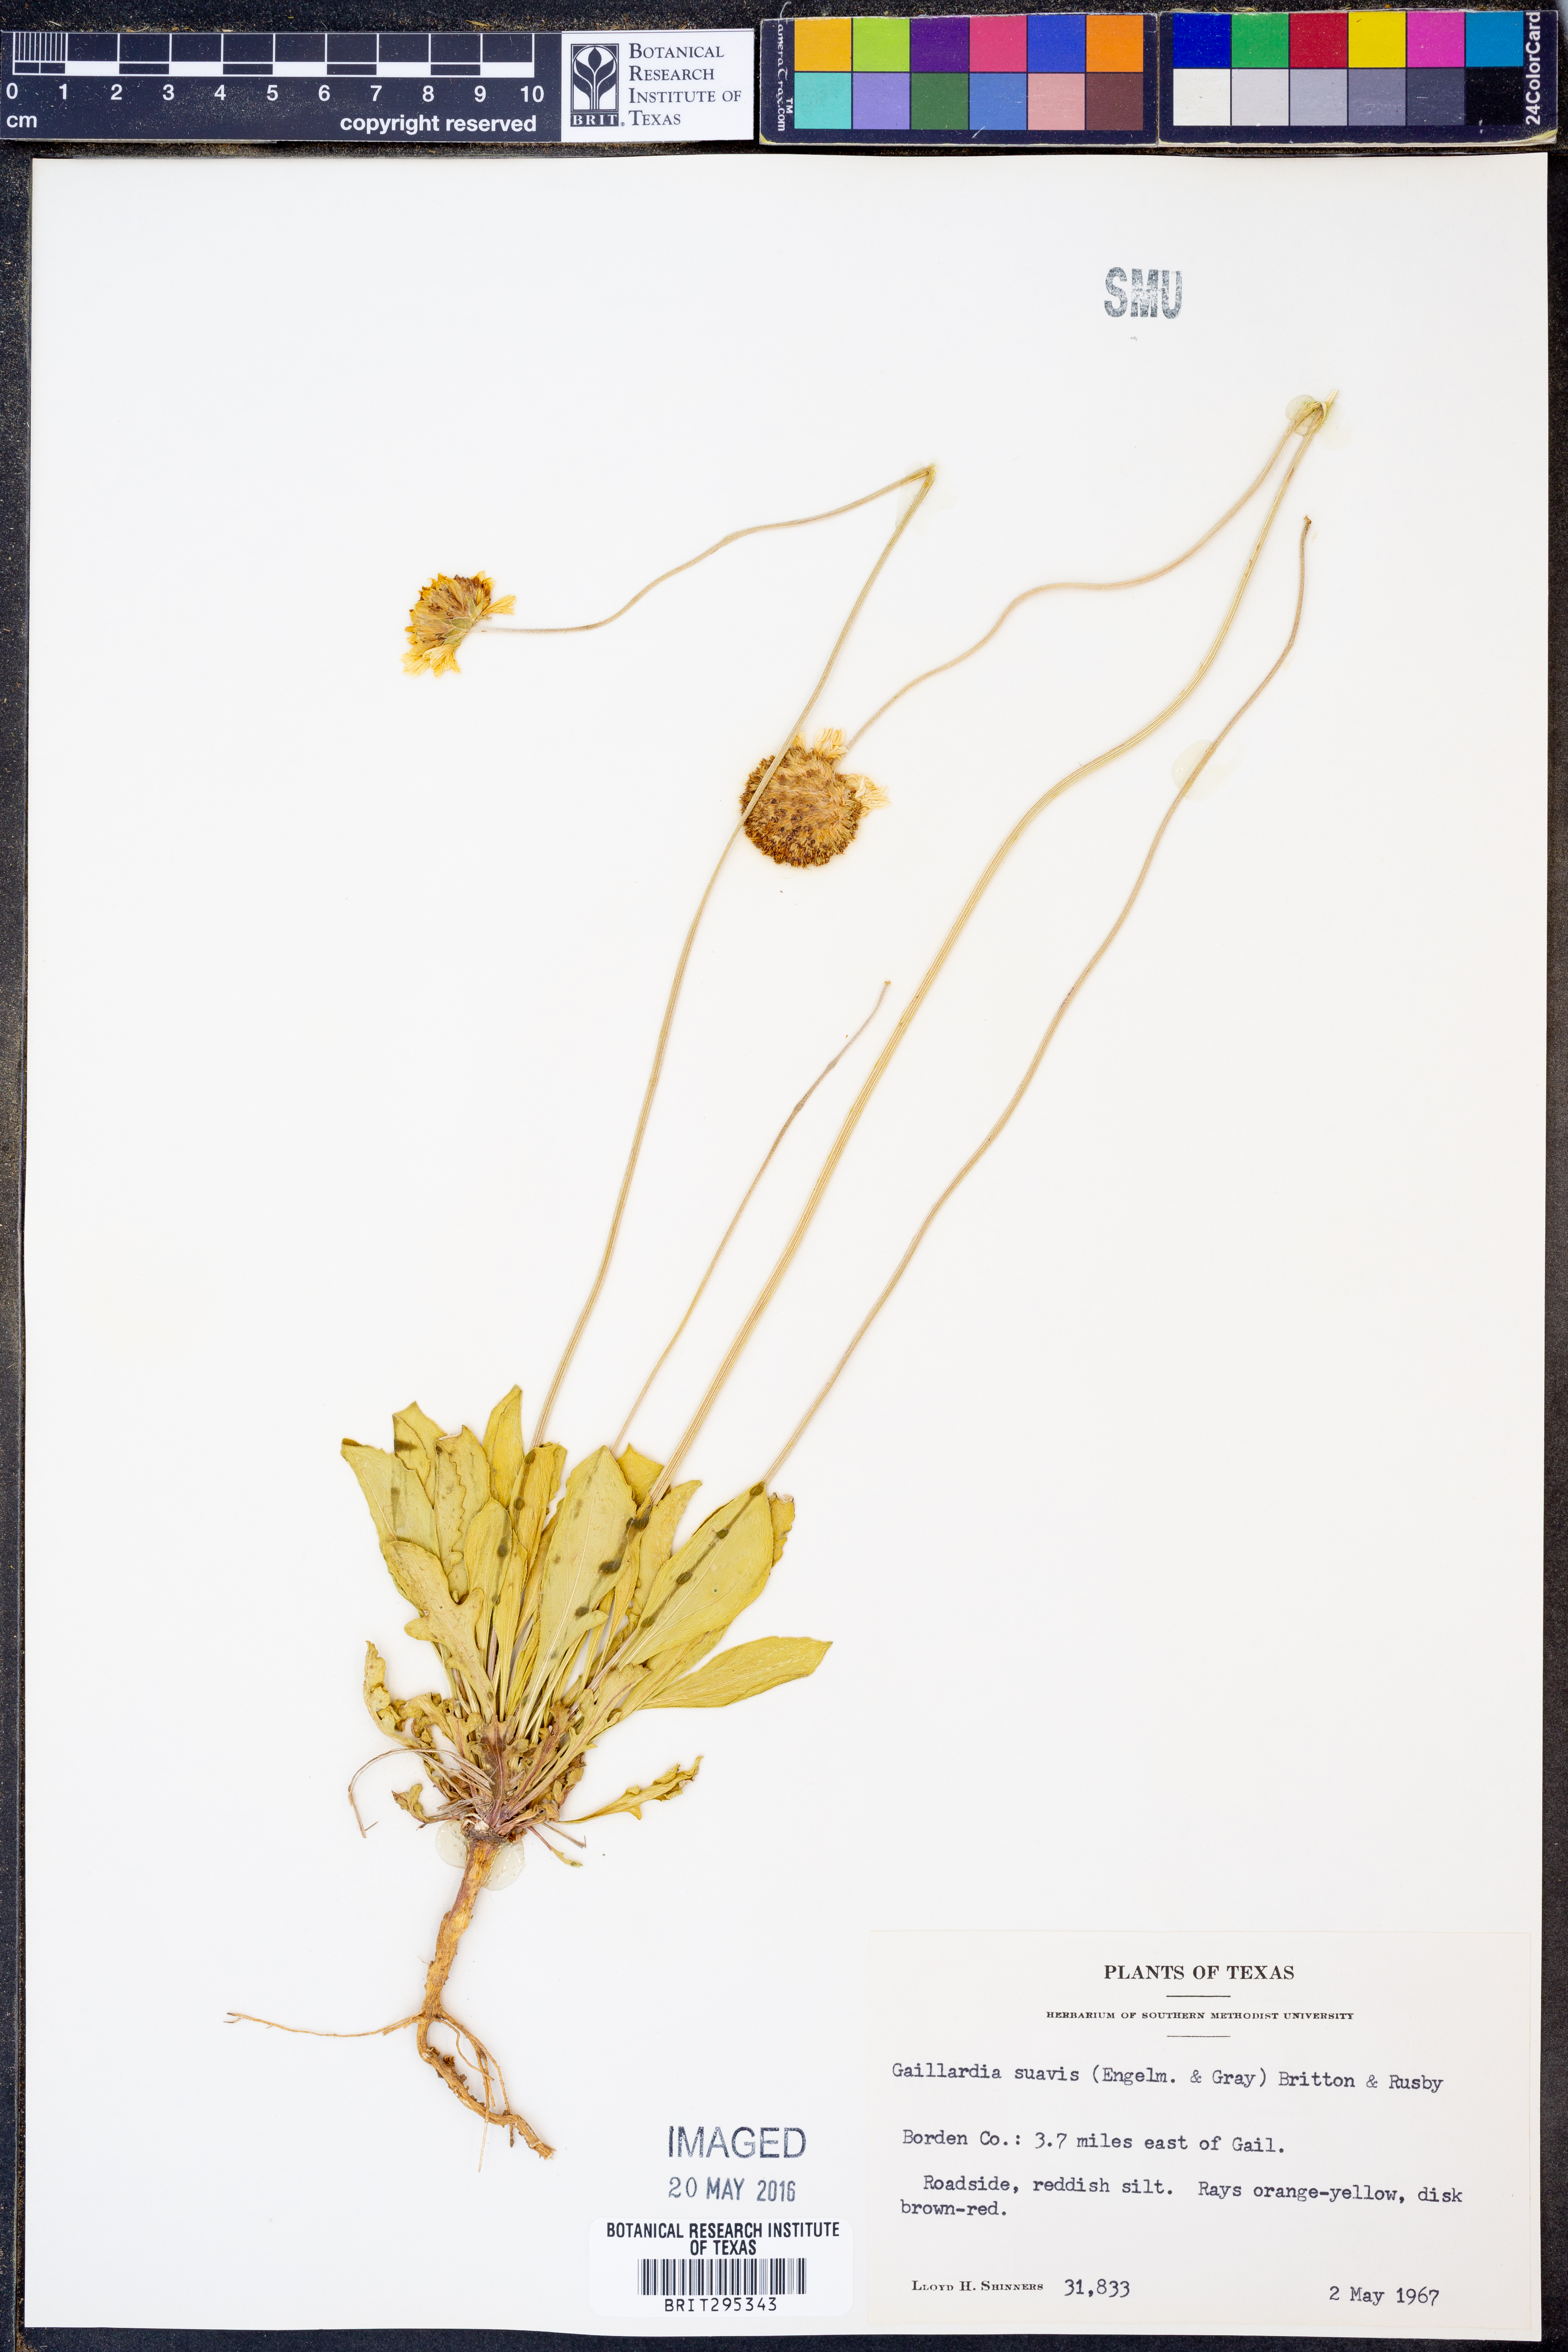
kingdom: Plantae
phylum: Tracheophyta
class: Magnoliopsida
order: Asterales
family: Asteraceae
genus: Gaillardia
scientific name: Gaillardia suavis
